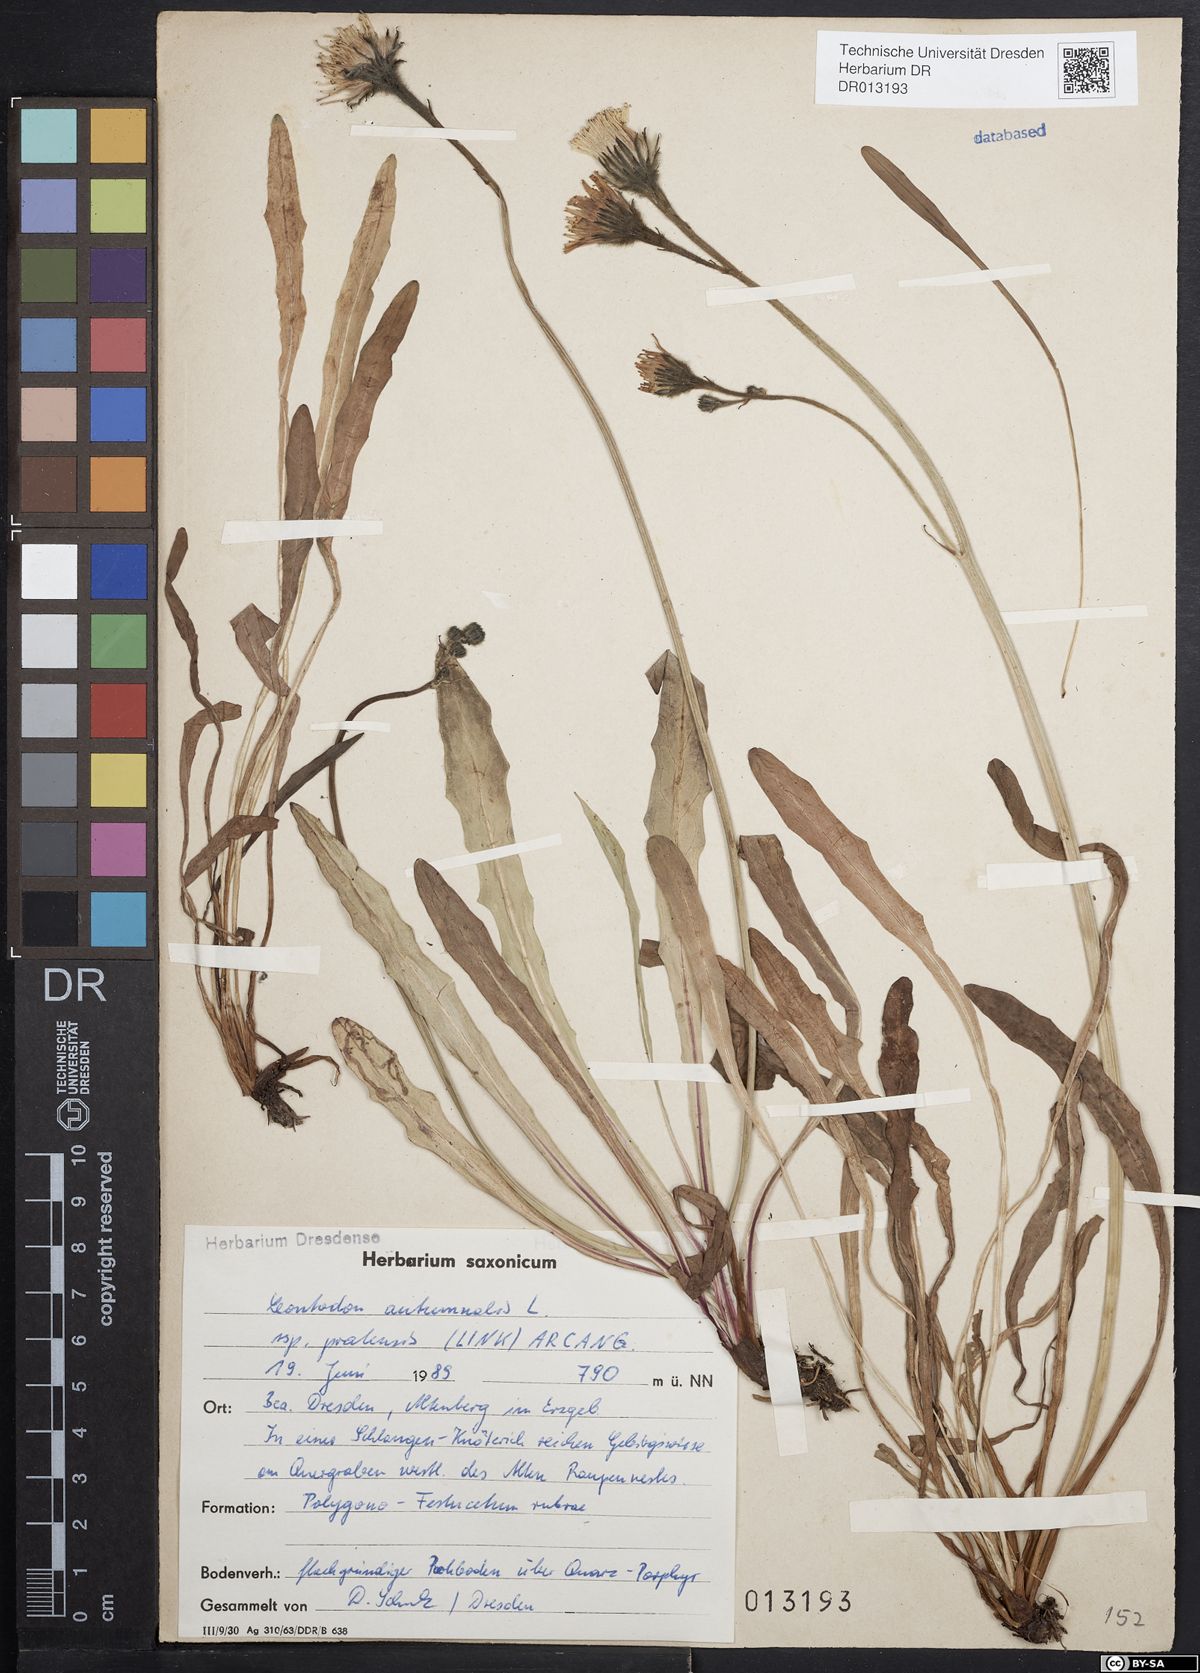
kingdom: Plantae
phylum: Tracheophyta
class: Magnoliopsida
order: Asterales
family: Asteraceae
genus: Scorzoneroides
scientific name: Scorzoneroides autumnalis
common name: Autumn hawkbit
